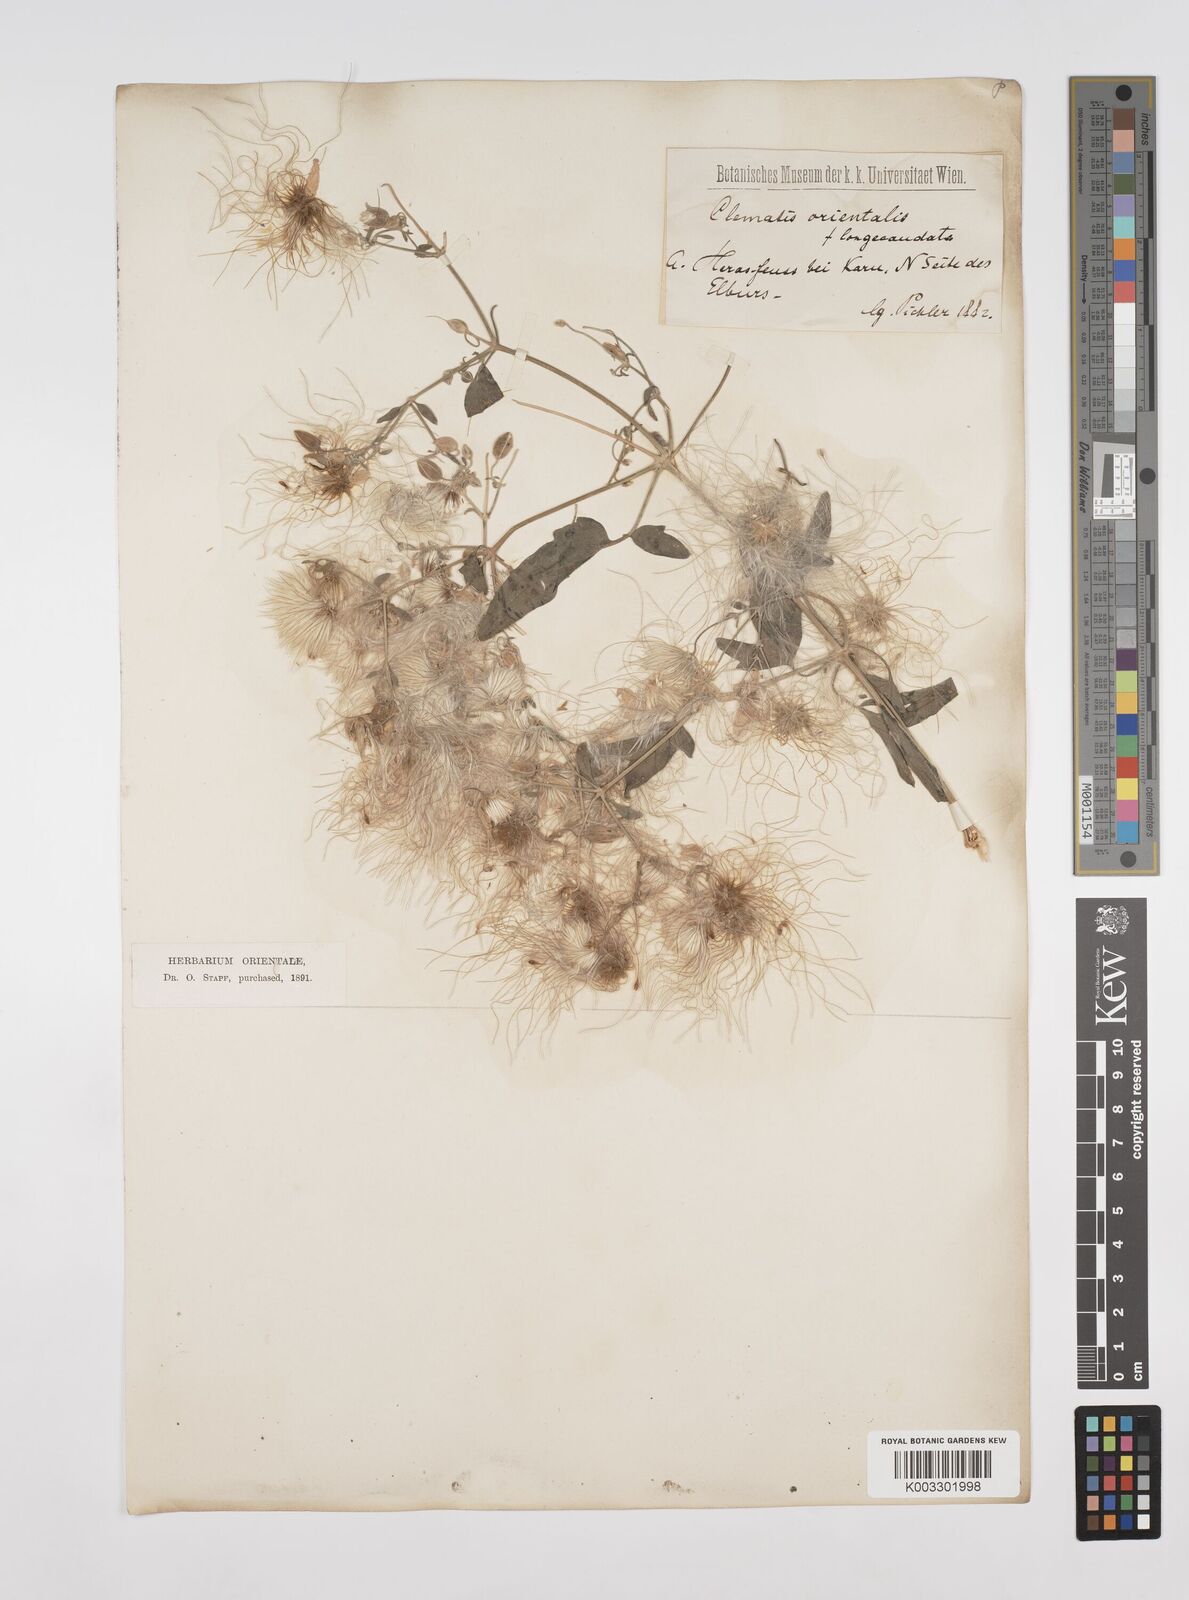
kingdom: Plantae
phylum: Tracheophyta
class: Magnoliopsida
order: Ranunculales
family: Ranunculaceae
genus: Clematis
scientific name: Clematis orientalis
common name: Oriental virgin's-bower
